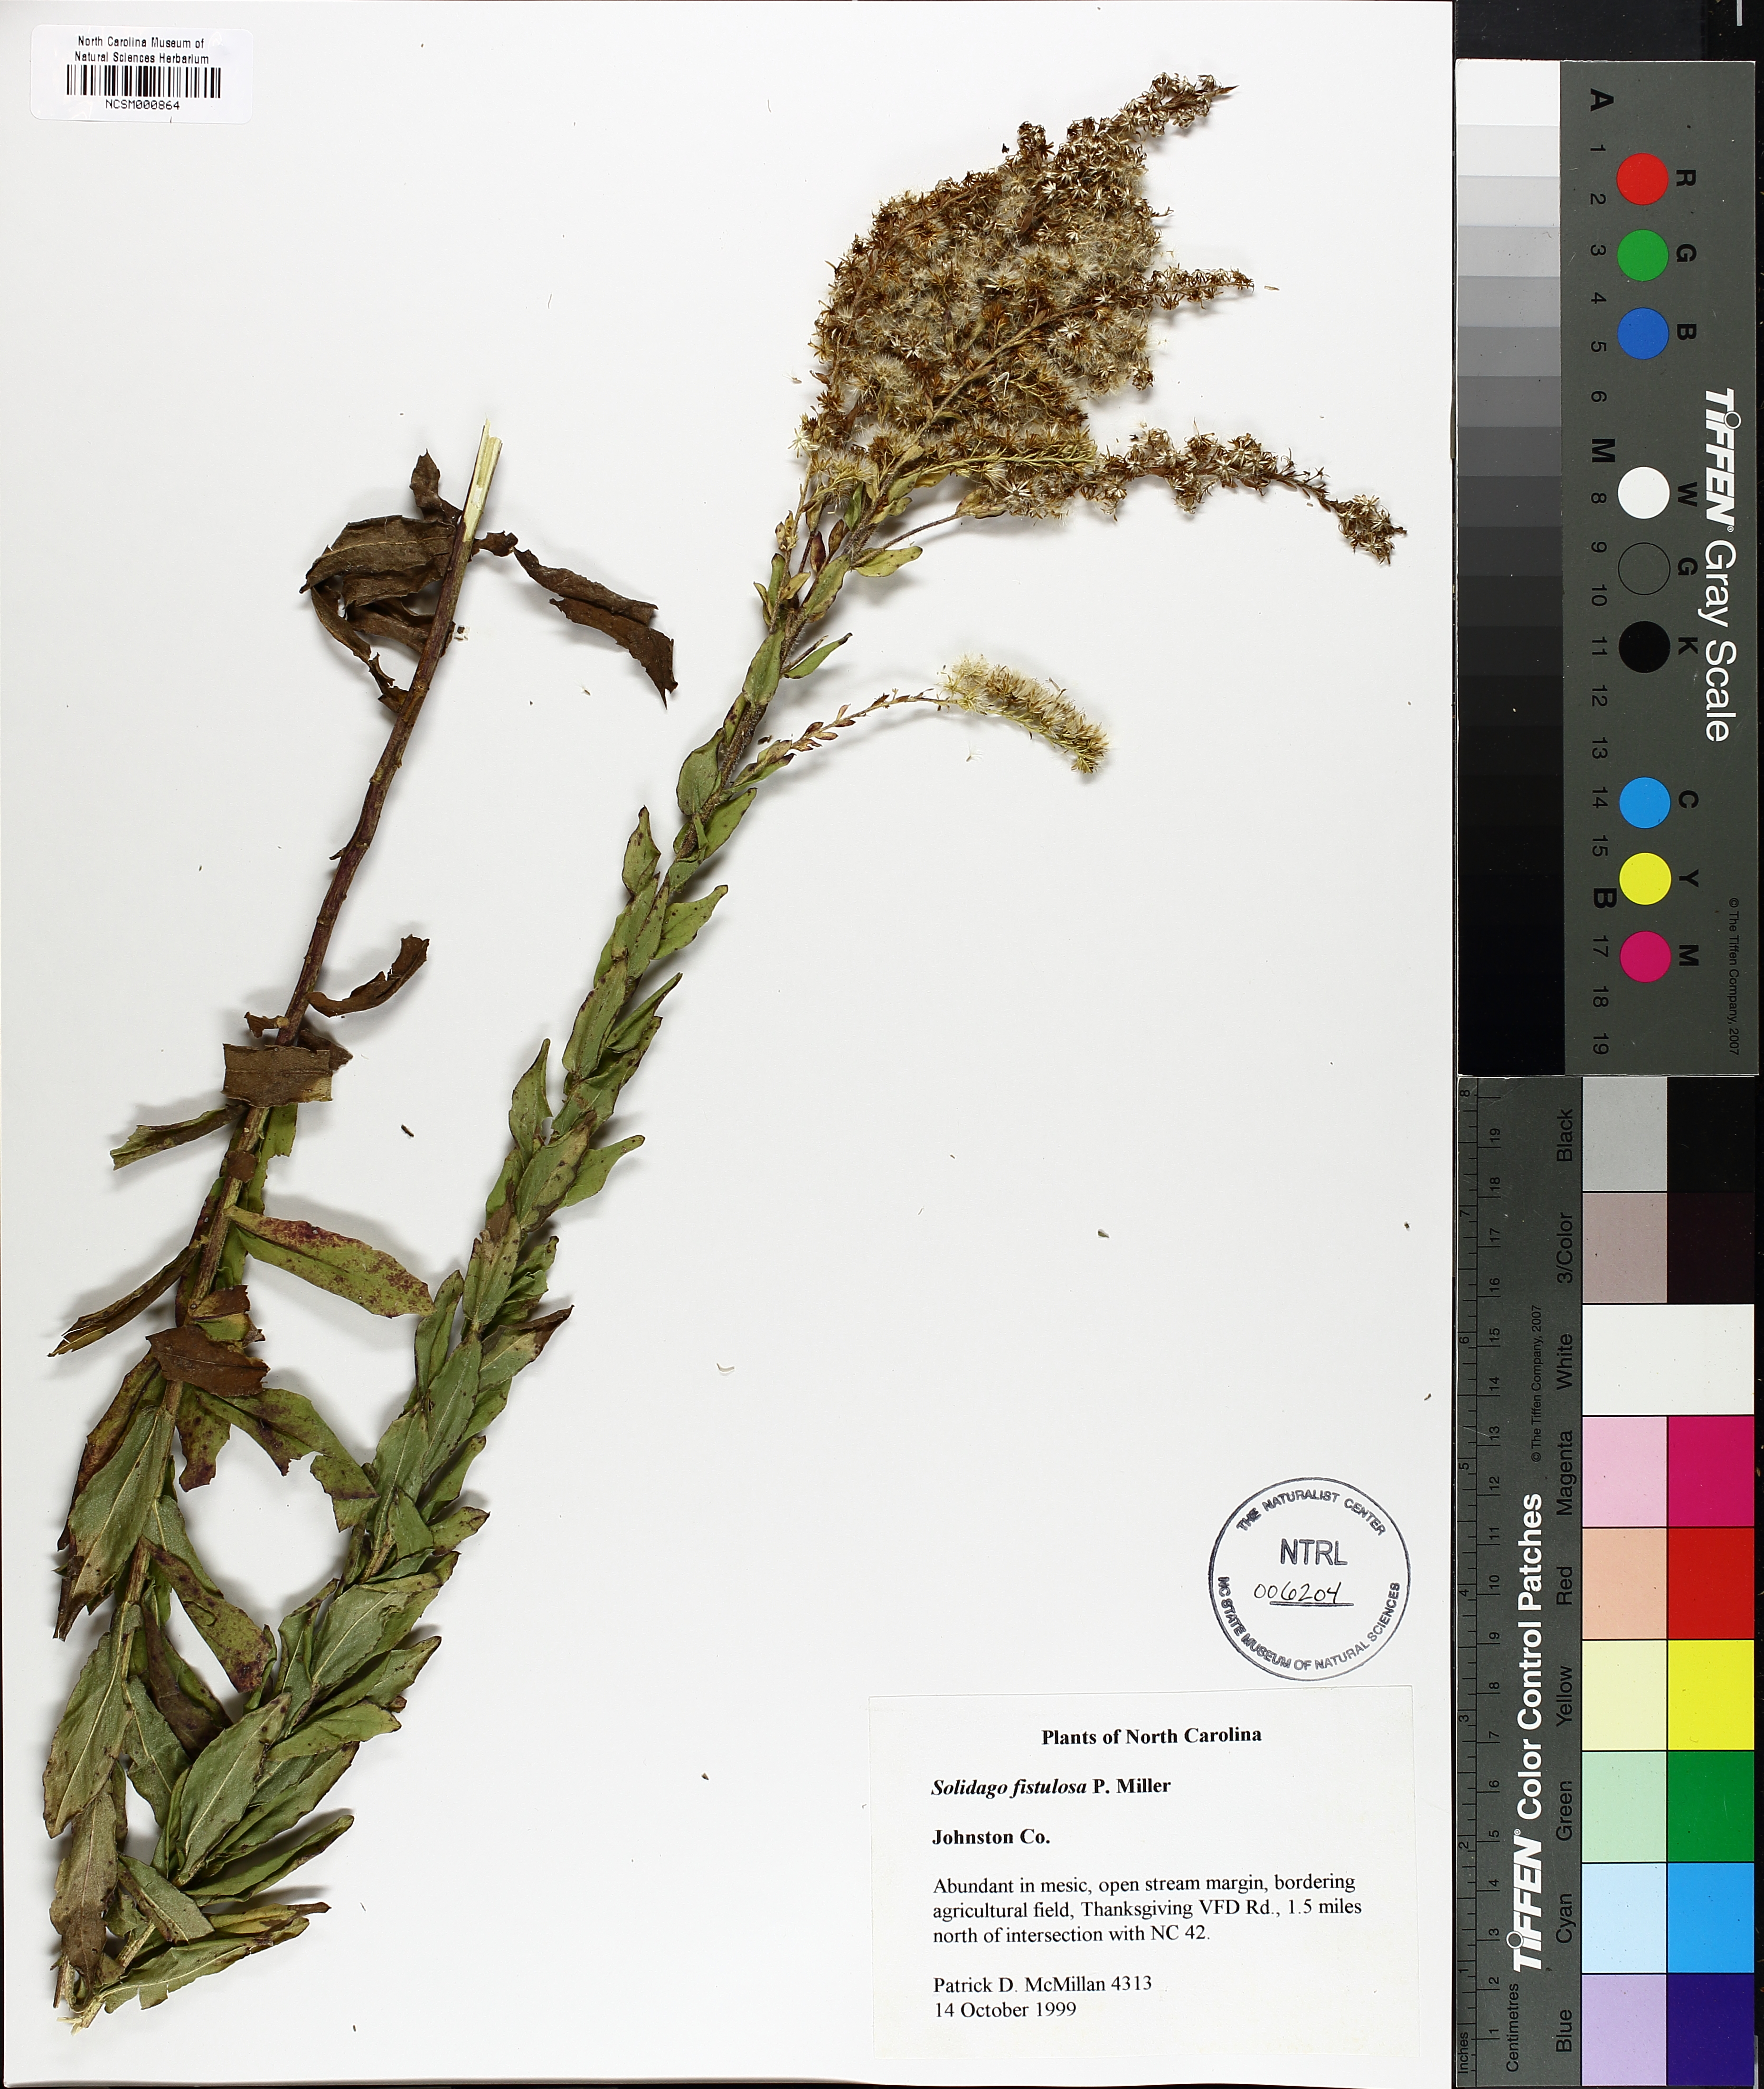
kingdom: Plantae
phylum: Tracheophyta
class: Magnoliopsida
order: Asterales
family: Asteraceae
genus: Solidago
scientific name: Solidago fistulosa
